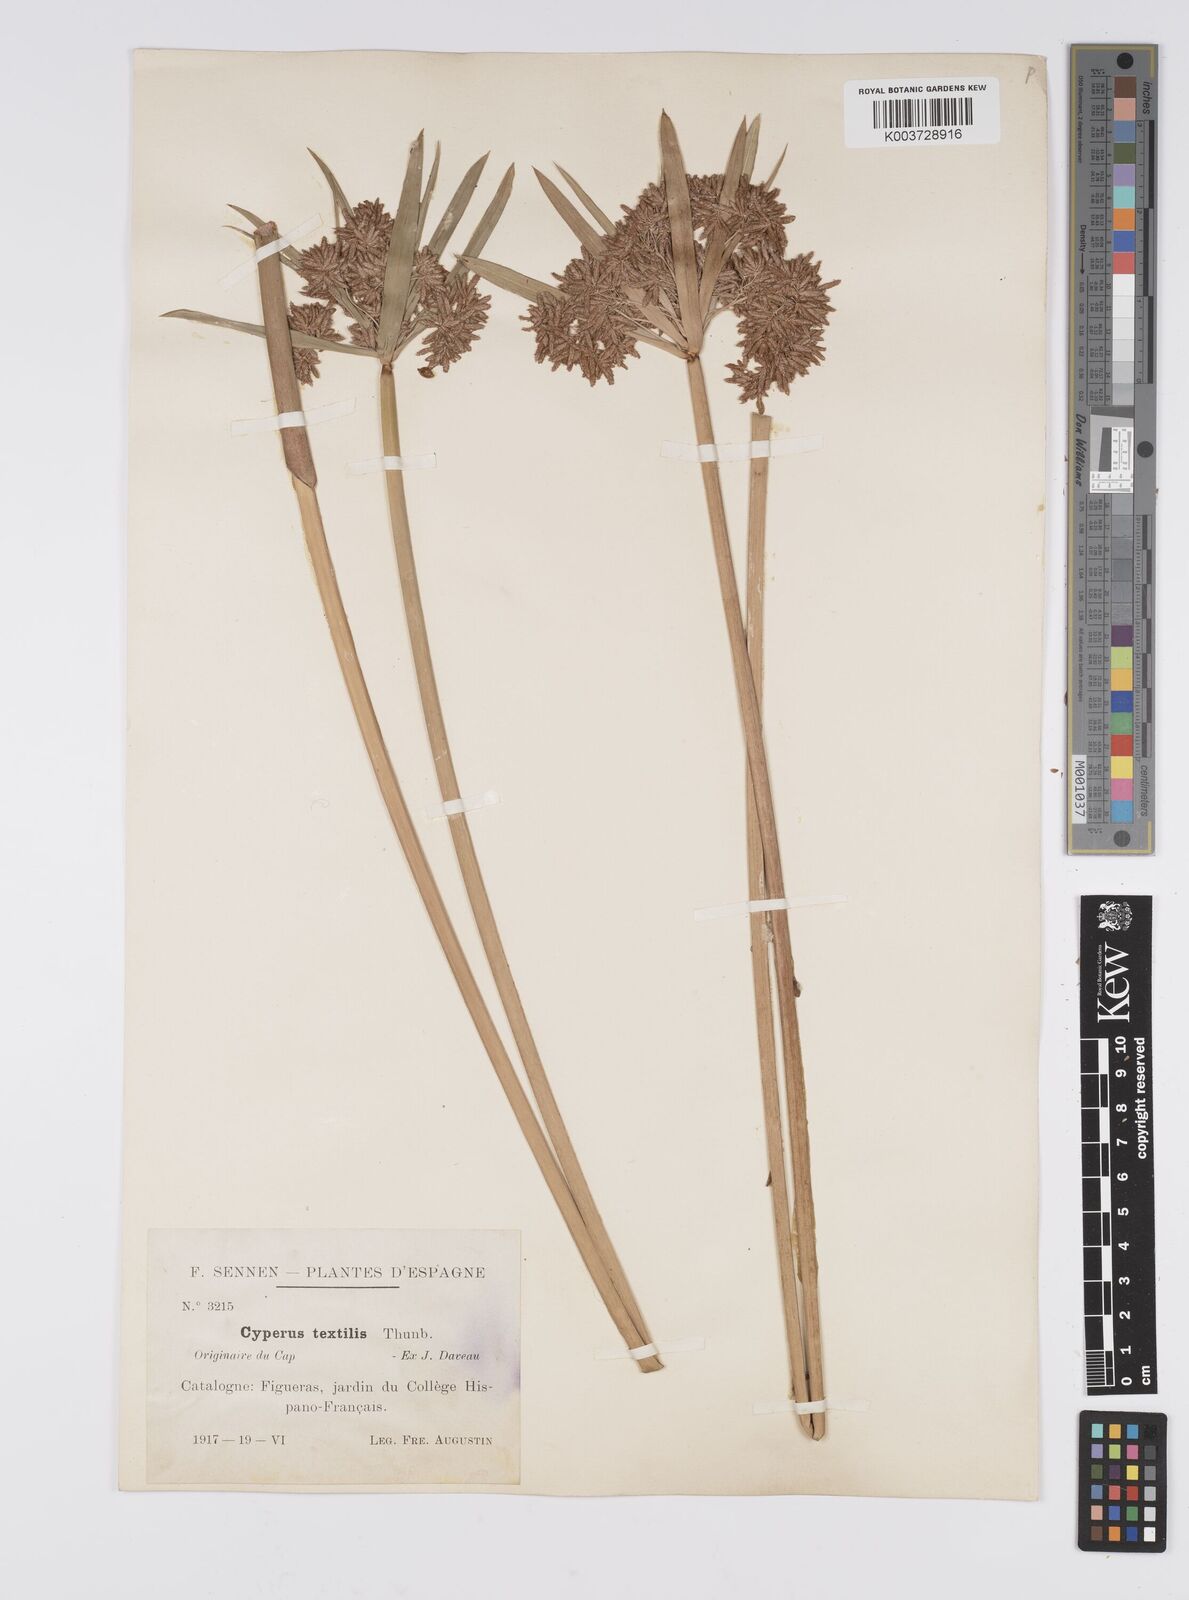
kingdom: Plantae
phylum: Tracheophyta
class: Liliopsida
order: Poales
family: Cyperaceae
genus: Cyperus
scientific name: Cyperus alternifolius
